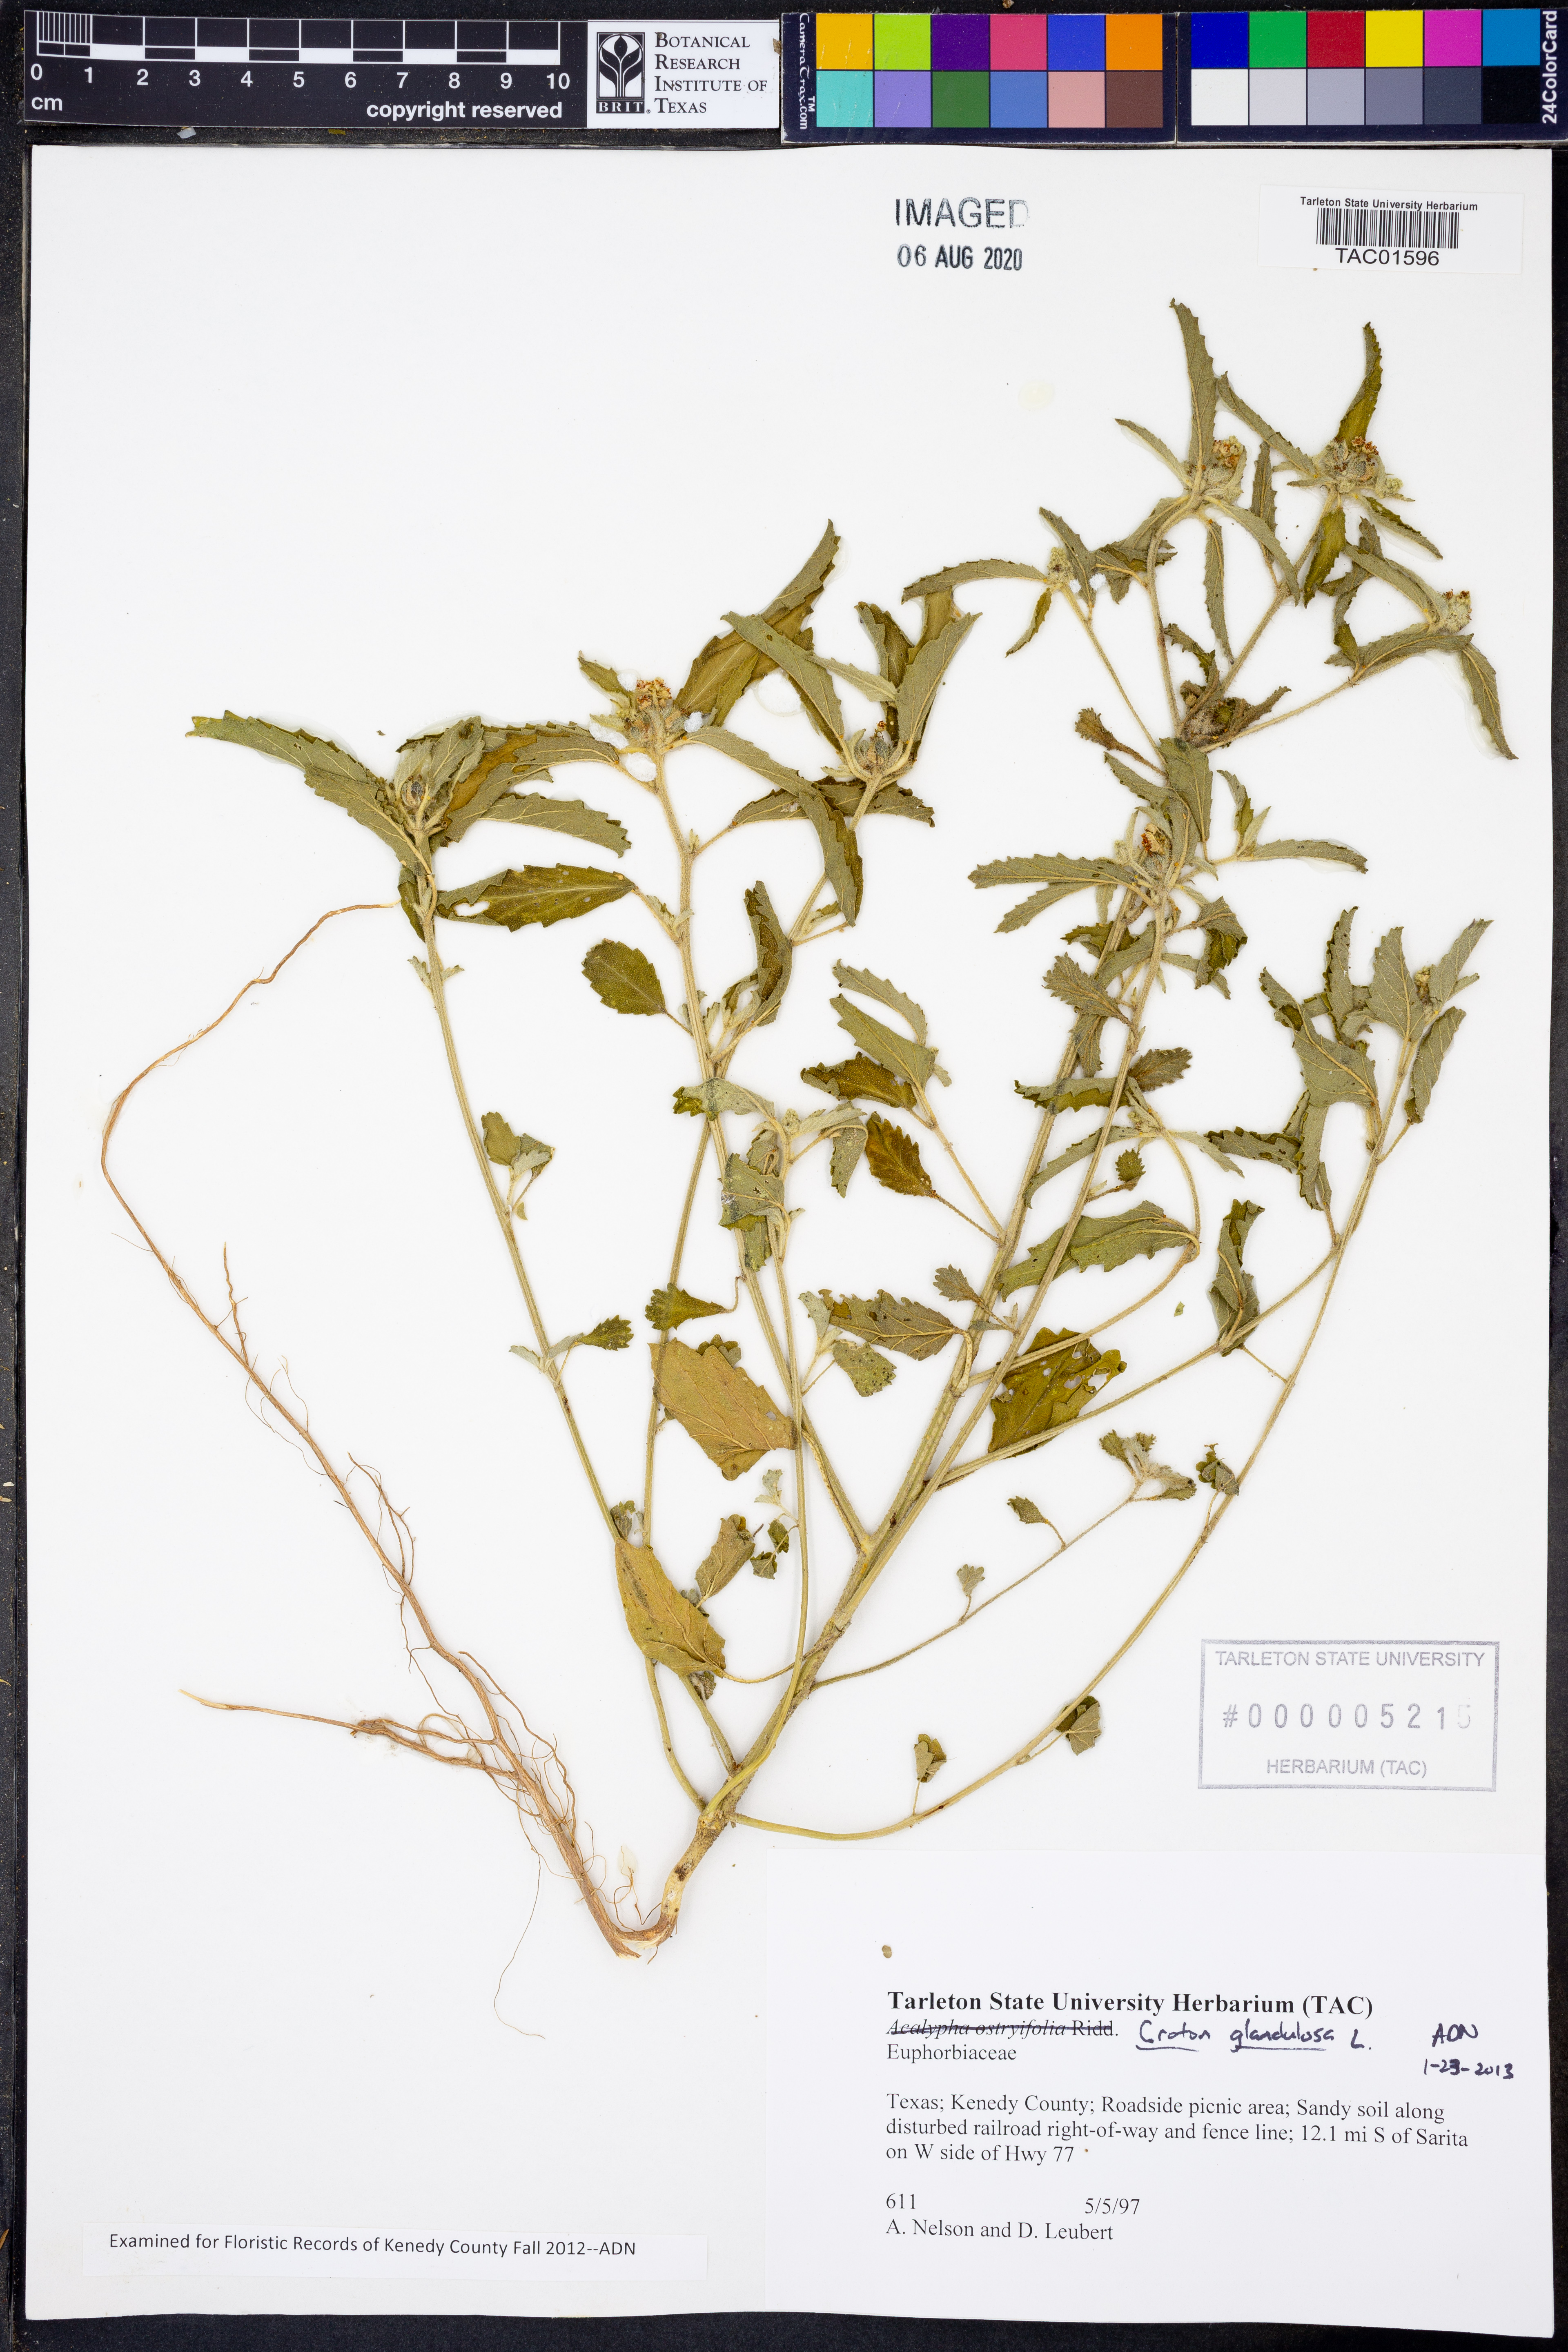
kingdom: Plantae
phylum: Tracheophyta
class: Magnoliopsida
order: Malpighiales
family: Euphorbiaceae
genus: Croton
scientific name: Croton glandulosus
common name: Tropic croton
